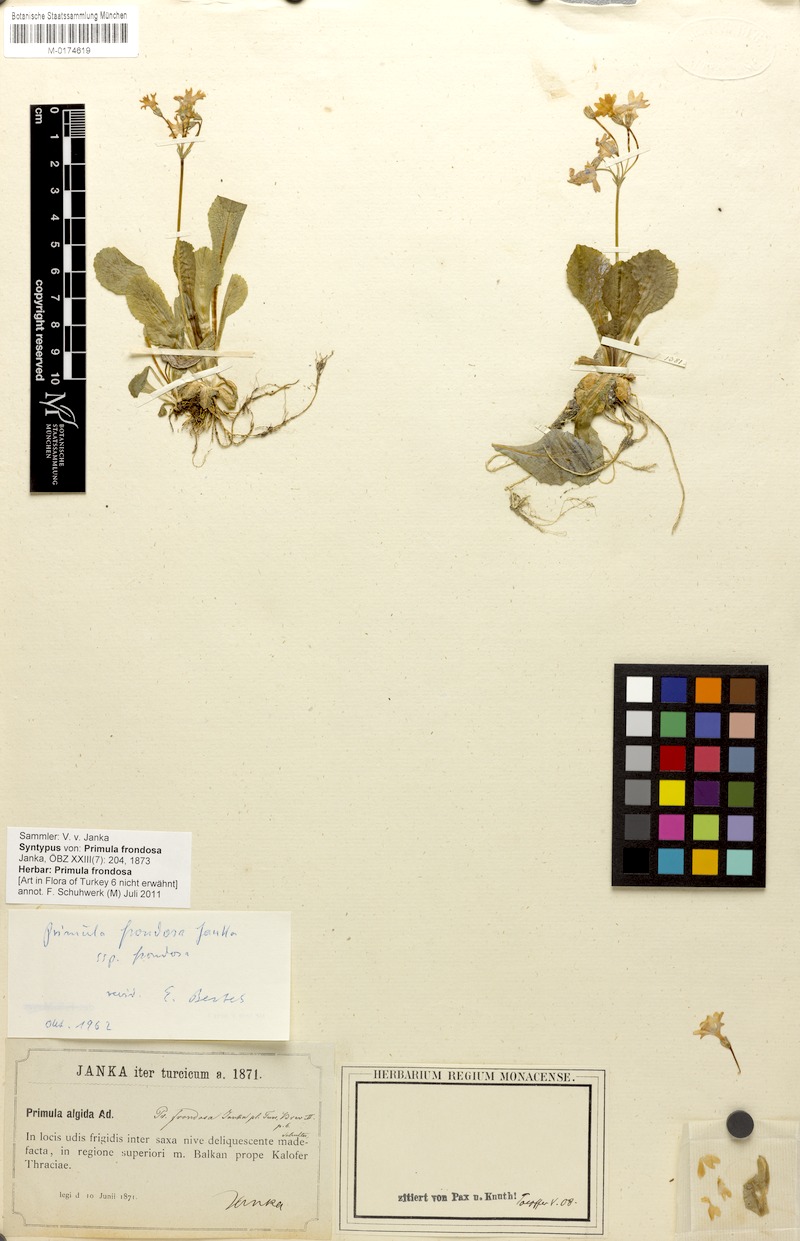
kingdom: Plantae
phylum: Tracheophyta
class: Magnoliopsida
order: Ericales
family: Primulaceae
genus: Primula
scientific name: Primula frondosa
